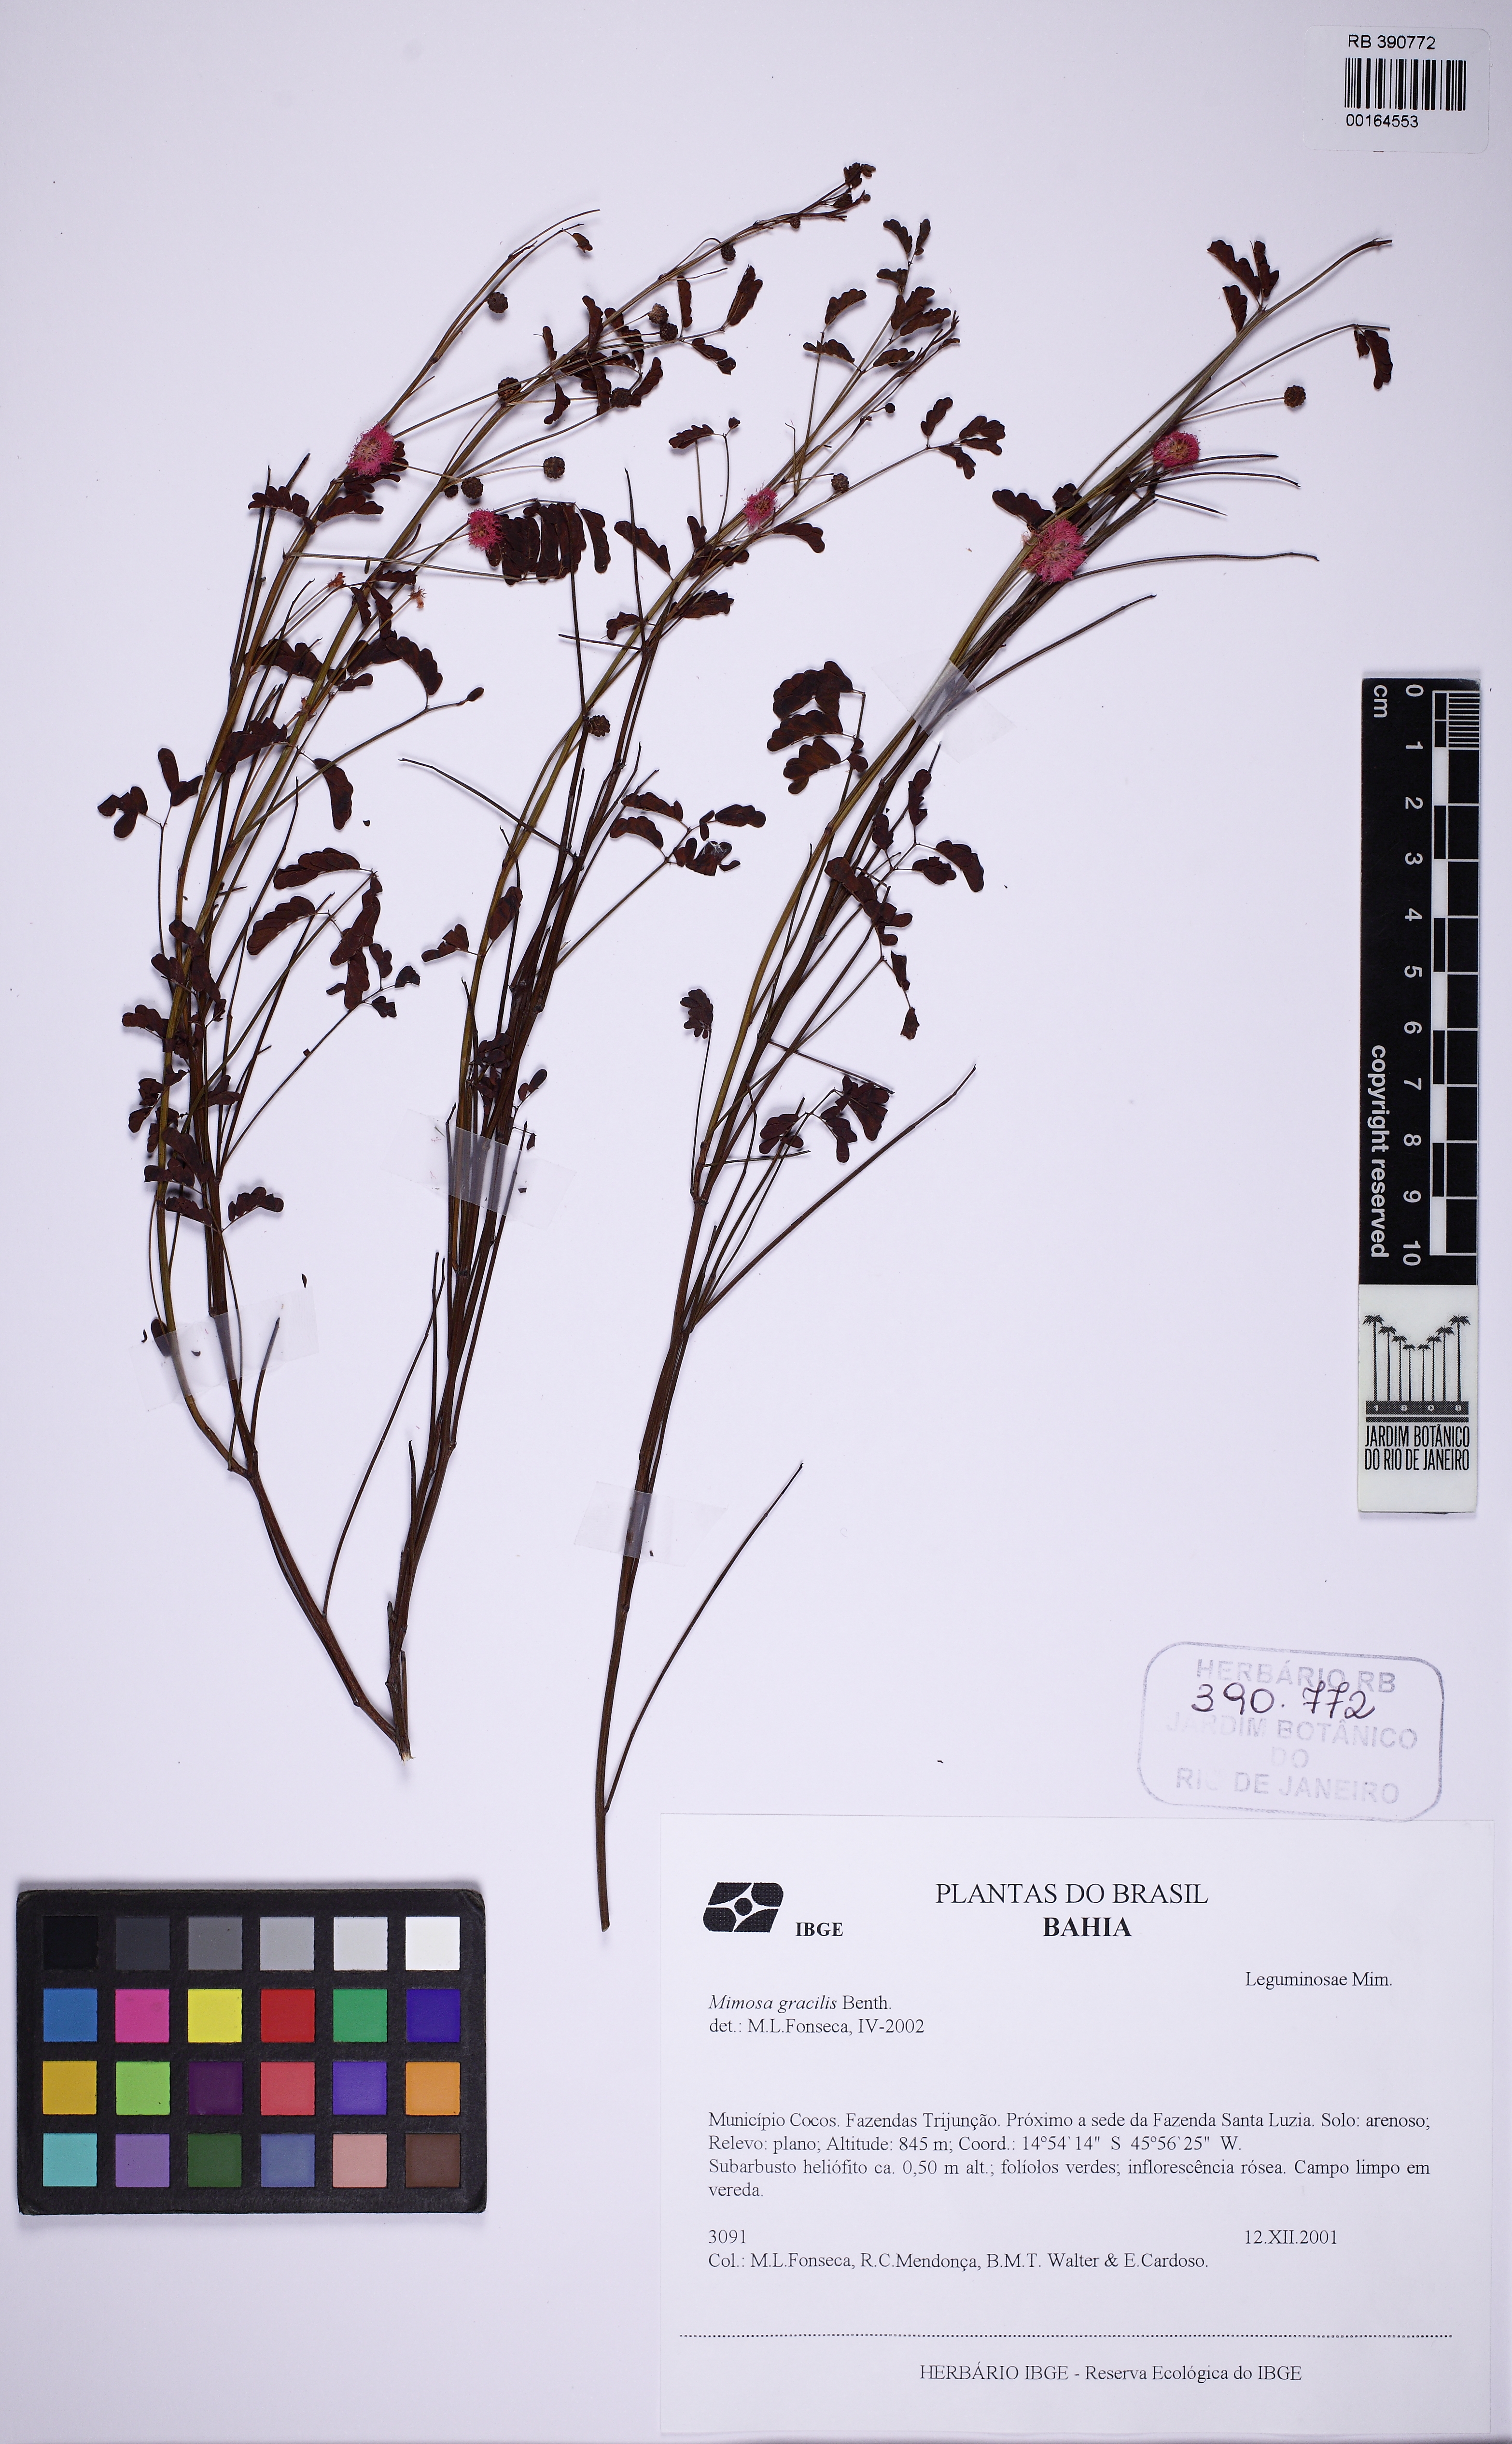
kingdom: Plantae
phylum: Tracheophyta
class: Magnoliopsida
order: Fabales
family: Fabaceae
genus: Mimosa
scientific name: Mimosa piptoptera
